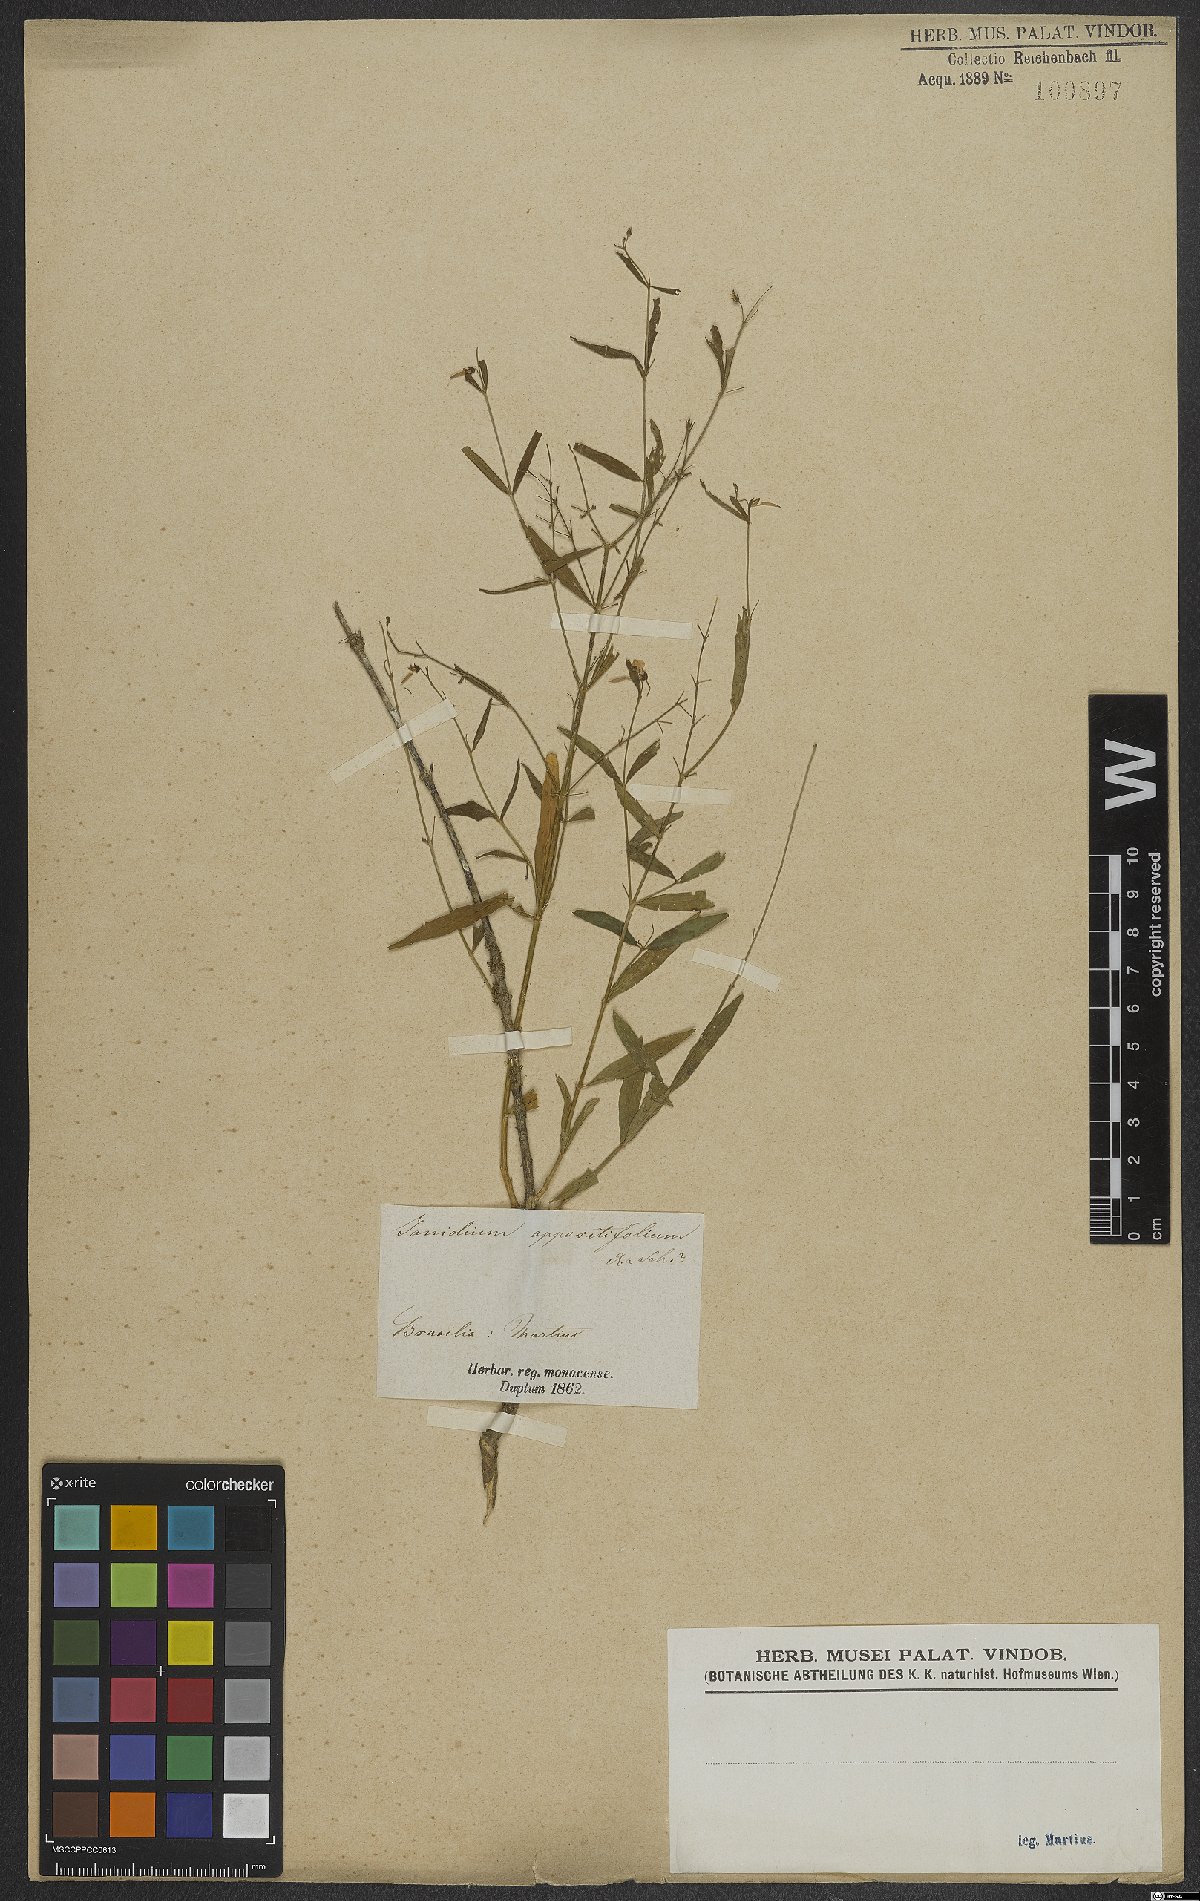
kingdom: Plantae
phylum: Tracheophyta
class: Magnoliopsida
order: Malpighiales
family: Violaceae
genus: Pombalia
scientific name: Pombalia oppositifolia
